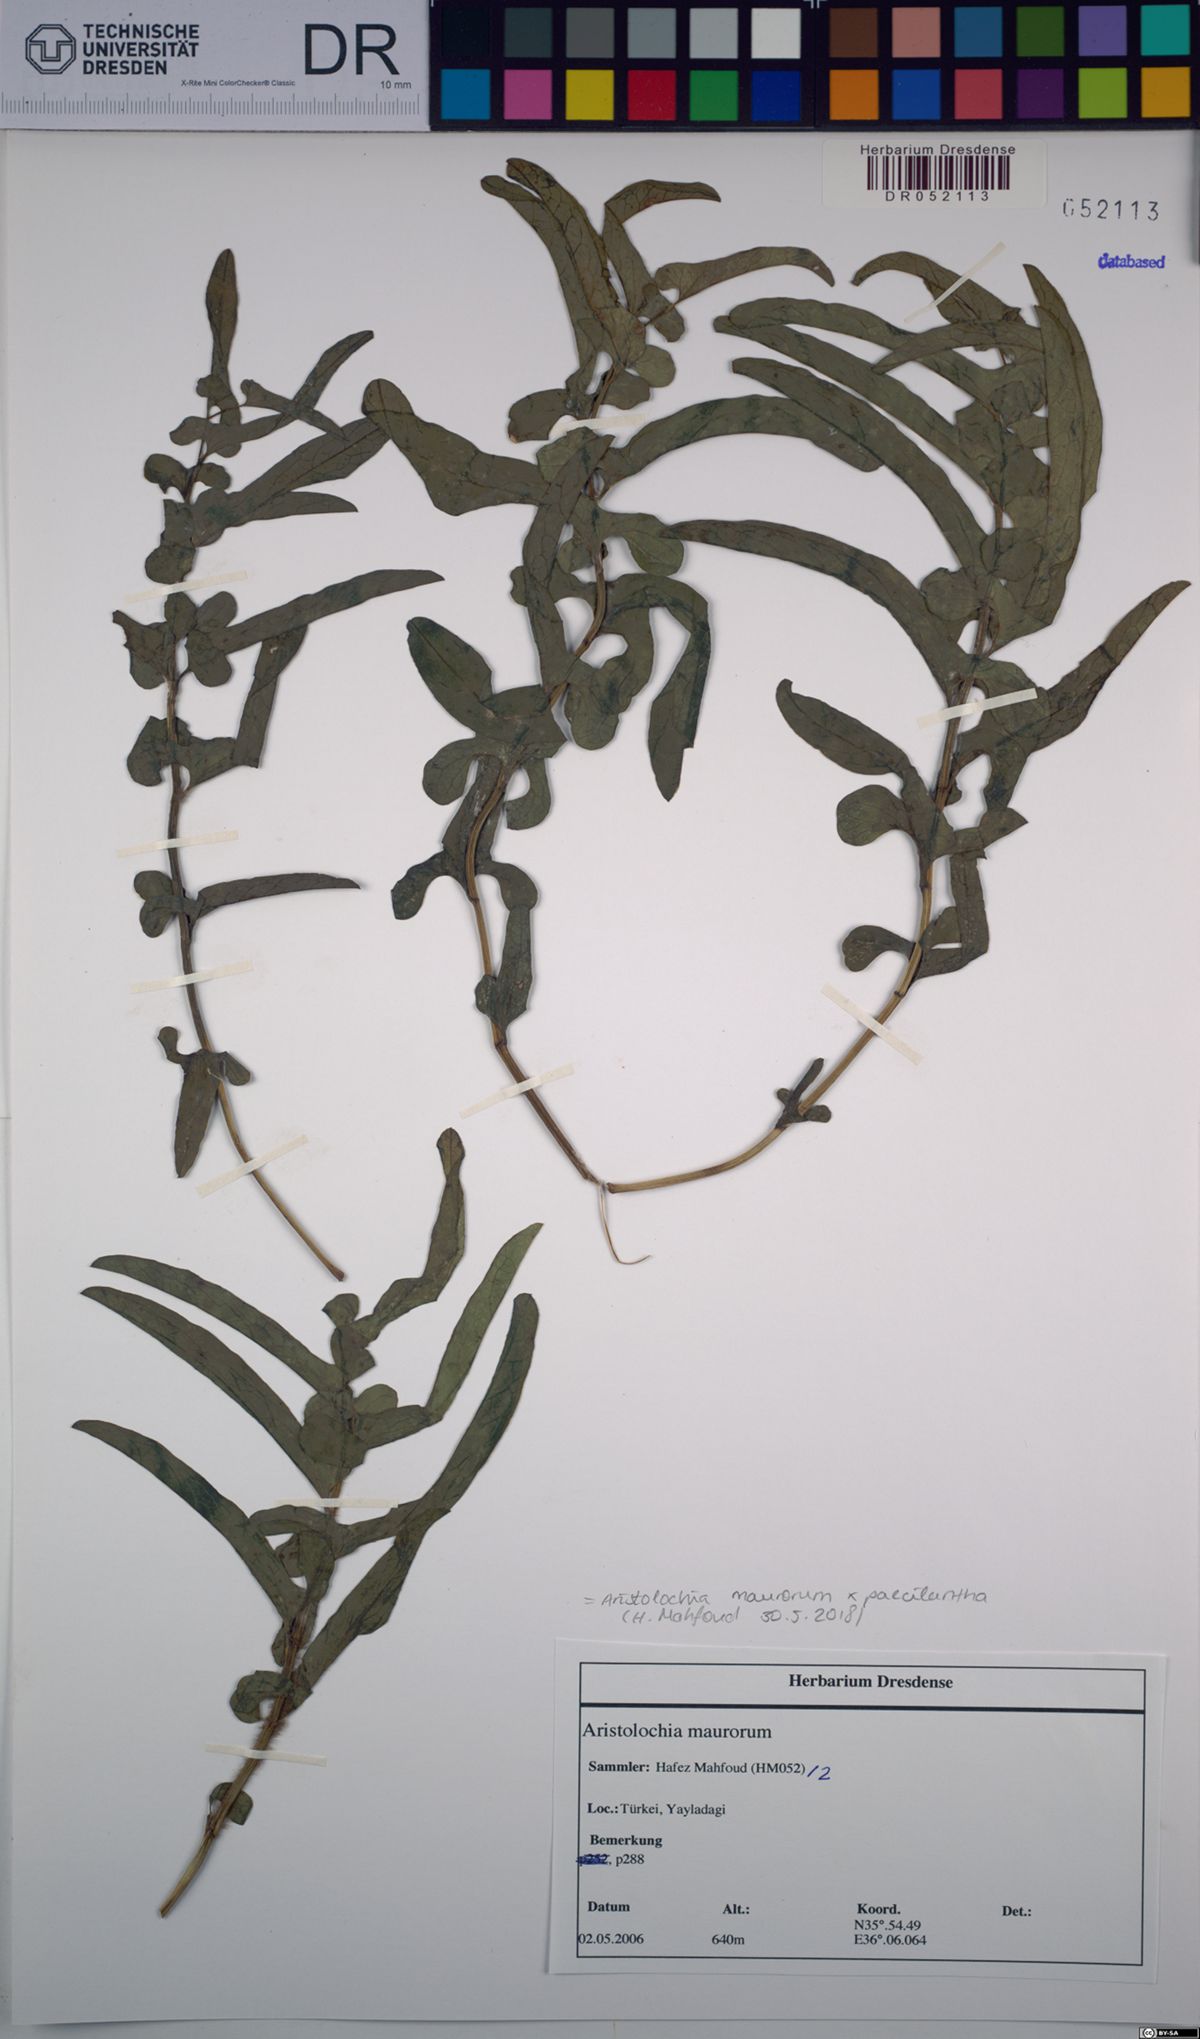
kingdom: Plantae
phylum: Tracheophyta
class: Magnoliopsida
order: Piperales
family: Aristolochiaceae
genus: Aristolochia
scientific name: Aristolochia maurorum
